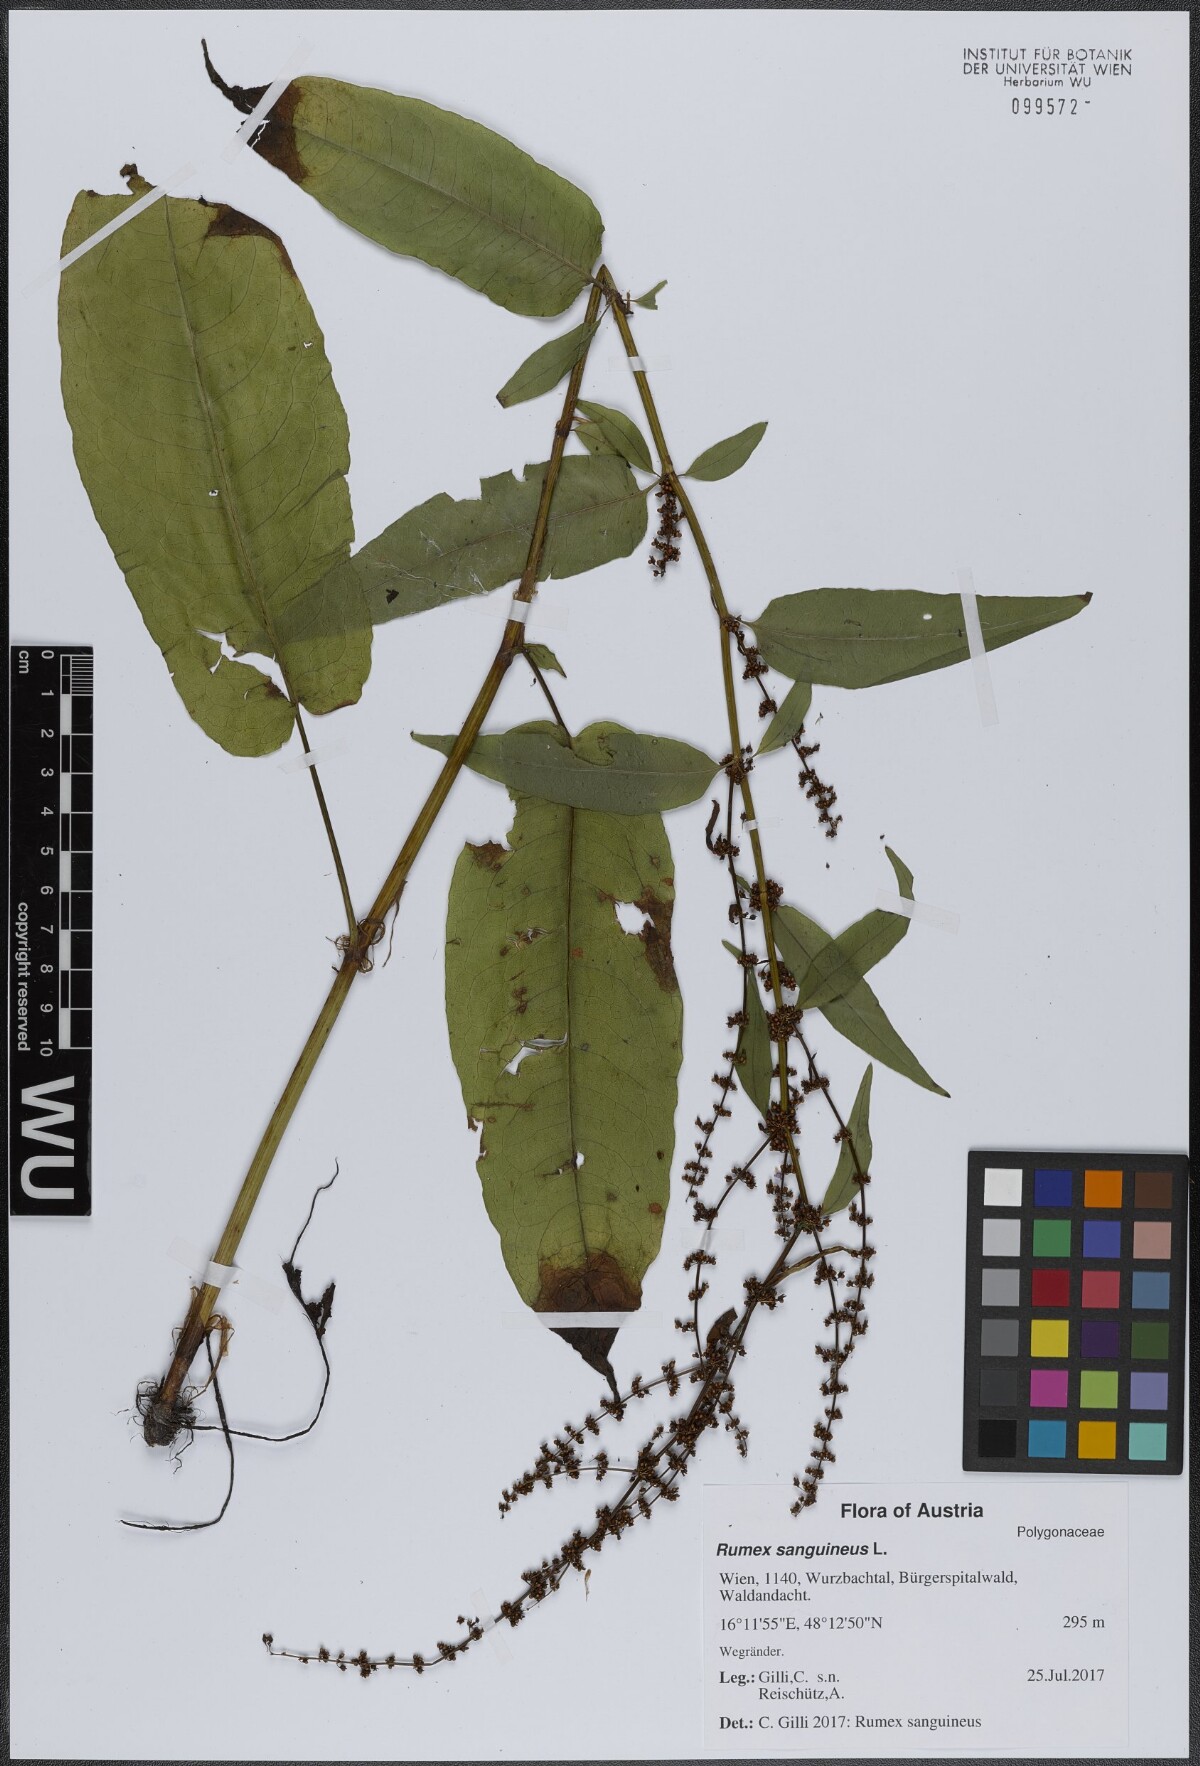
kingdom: Plantae
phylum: Tracheophyta
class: Magnoliopsida
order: Caryophyllales
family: Polygonaceae
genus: Rumex
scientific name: Rumex sanguineus
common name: Wood dock
